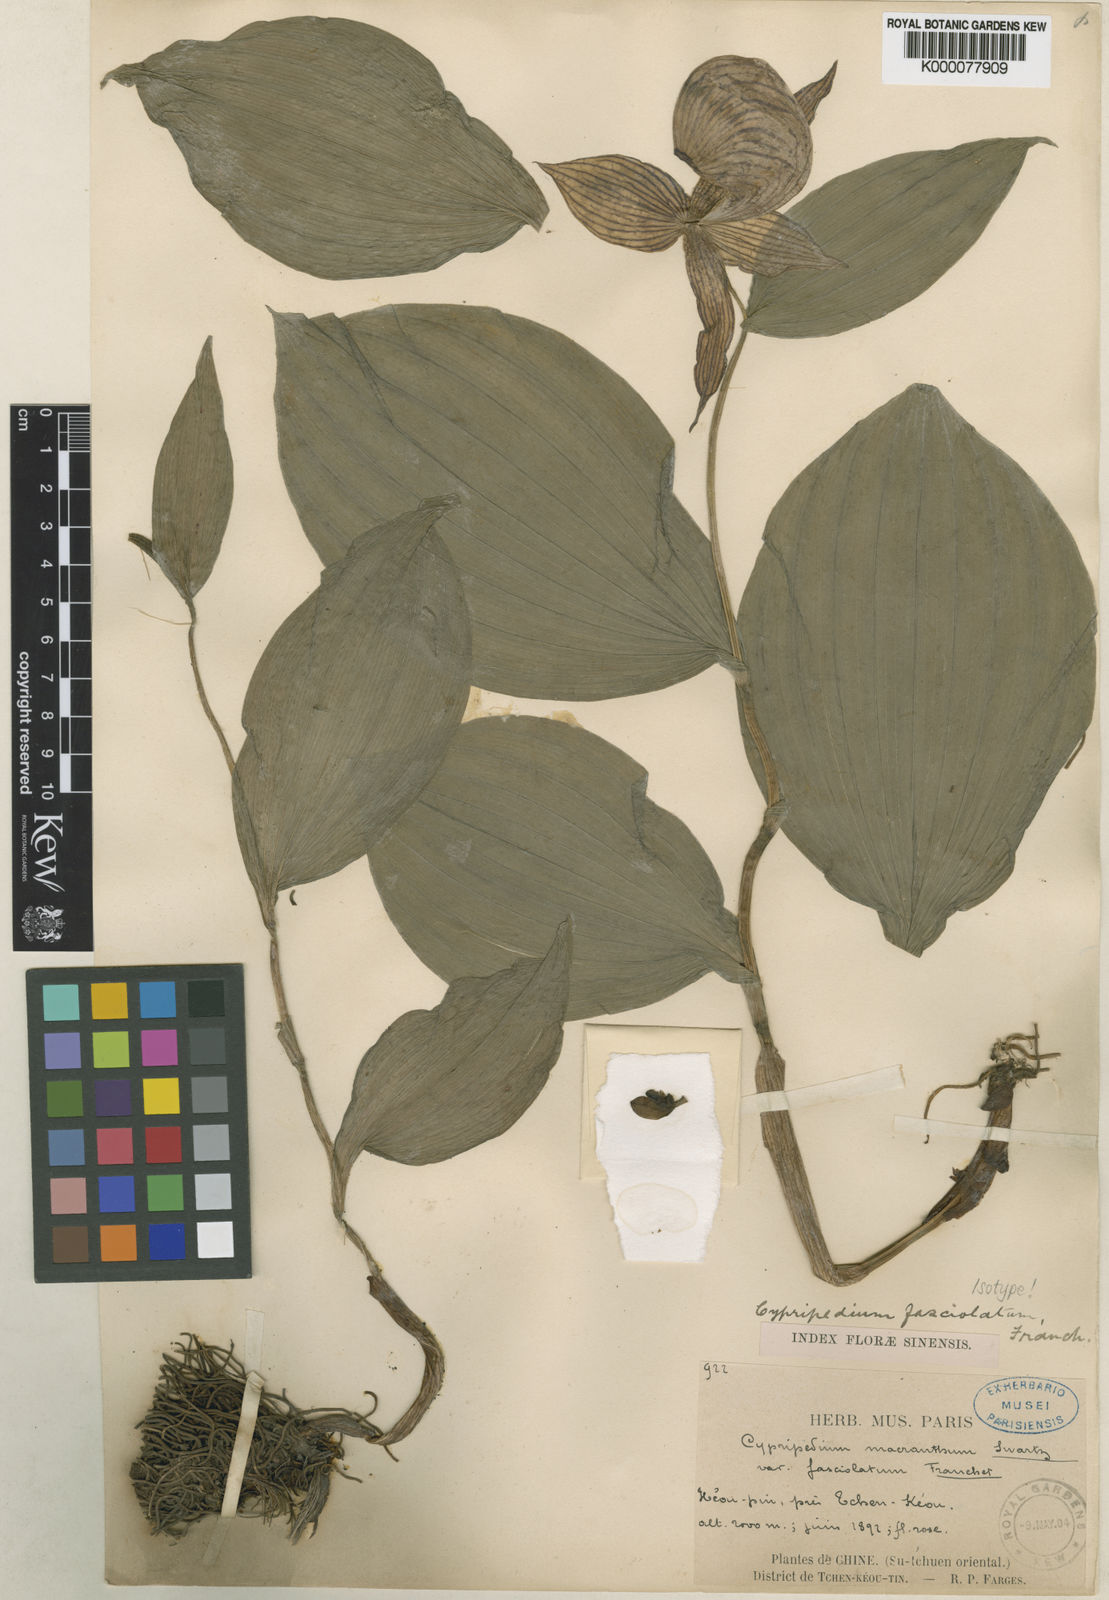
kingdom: Plantae
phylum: Tracheophyta
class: Liliopsida
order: Asparagales
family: Orchidaceae
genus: Cypripedium
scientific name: Cypripedium fasciolatum
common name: Striped lady slipper
